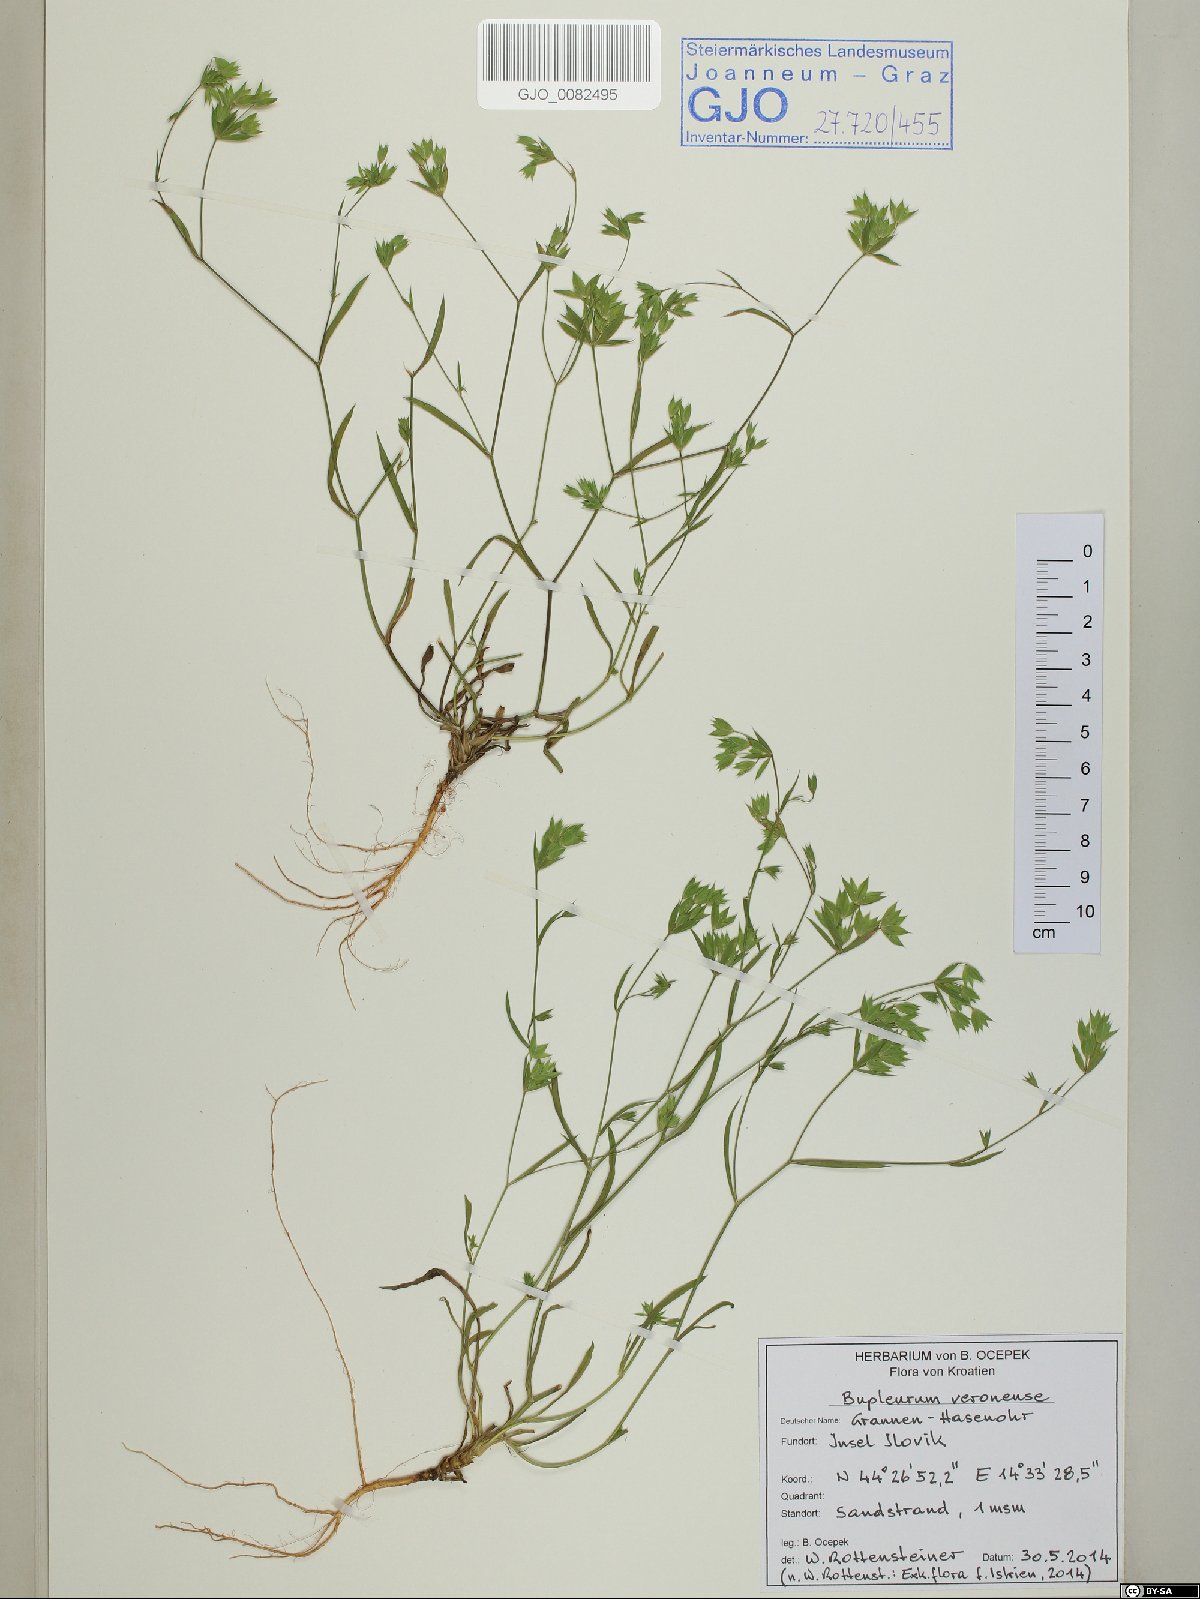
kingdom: Plantae
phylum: Tracheophyta
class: Magnoliopsida
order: Apiales
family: Apiaceae
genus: Bupleurum
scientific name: Bupleurum veronense
